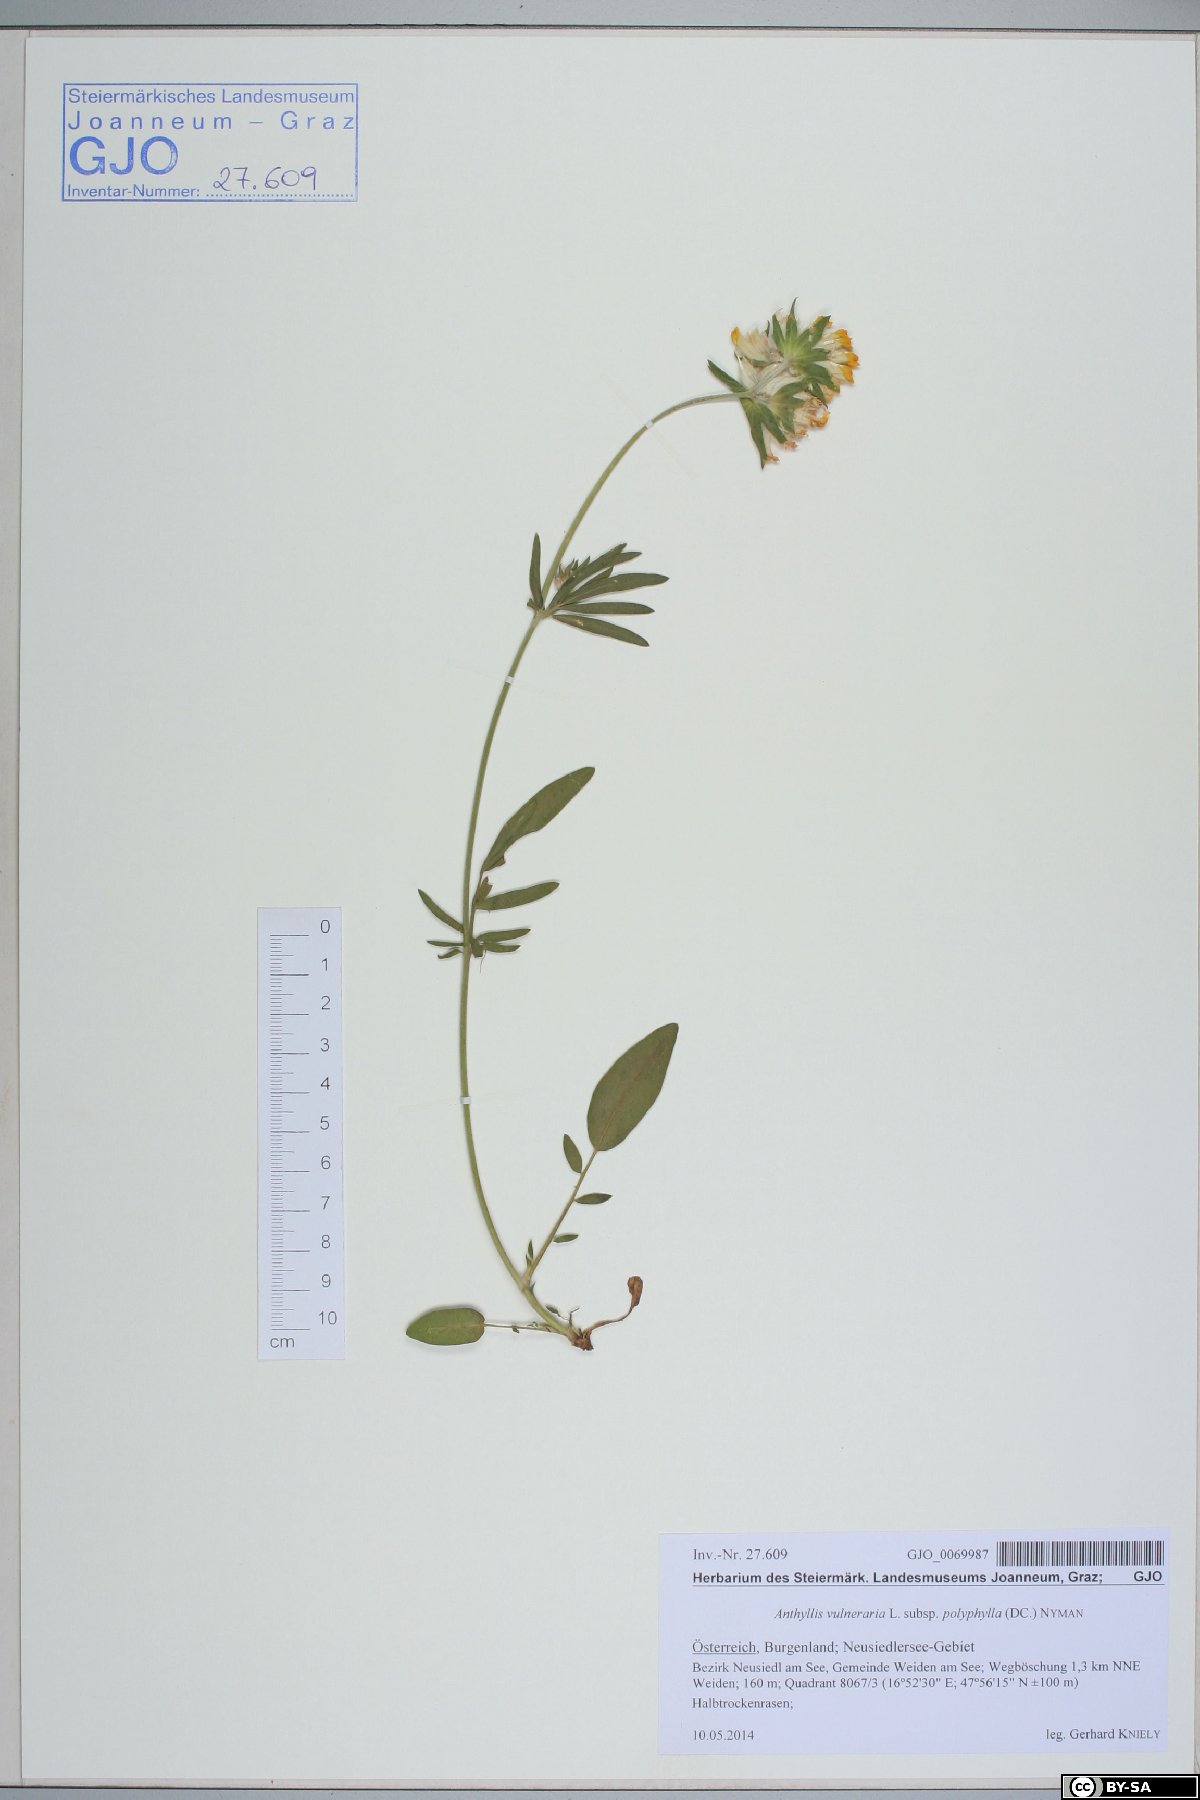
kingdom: Plantae
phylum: Tracheophyta
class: Magnoliopsida
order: Fabales
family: Fabaceae
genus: Anthyllis
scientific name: Anthyllis vulneraria
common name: Kidney vetch
